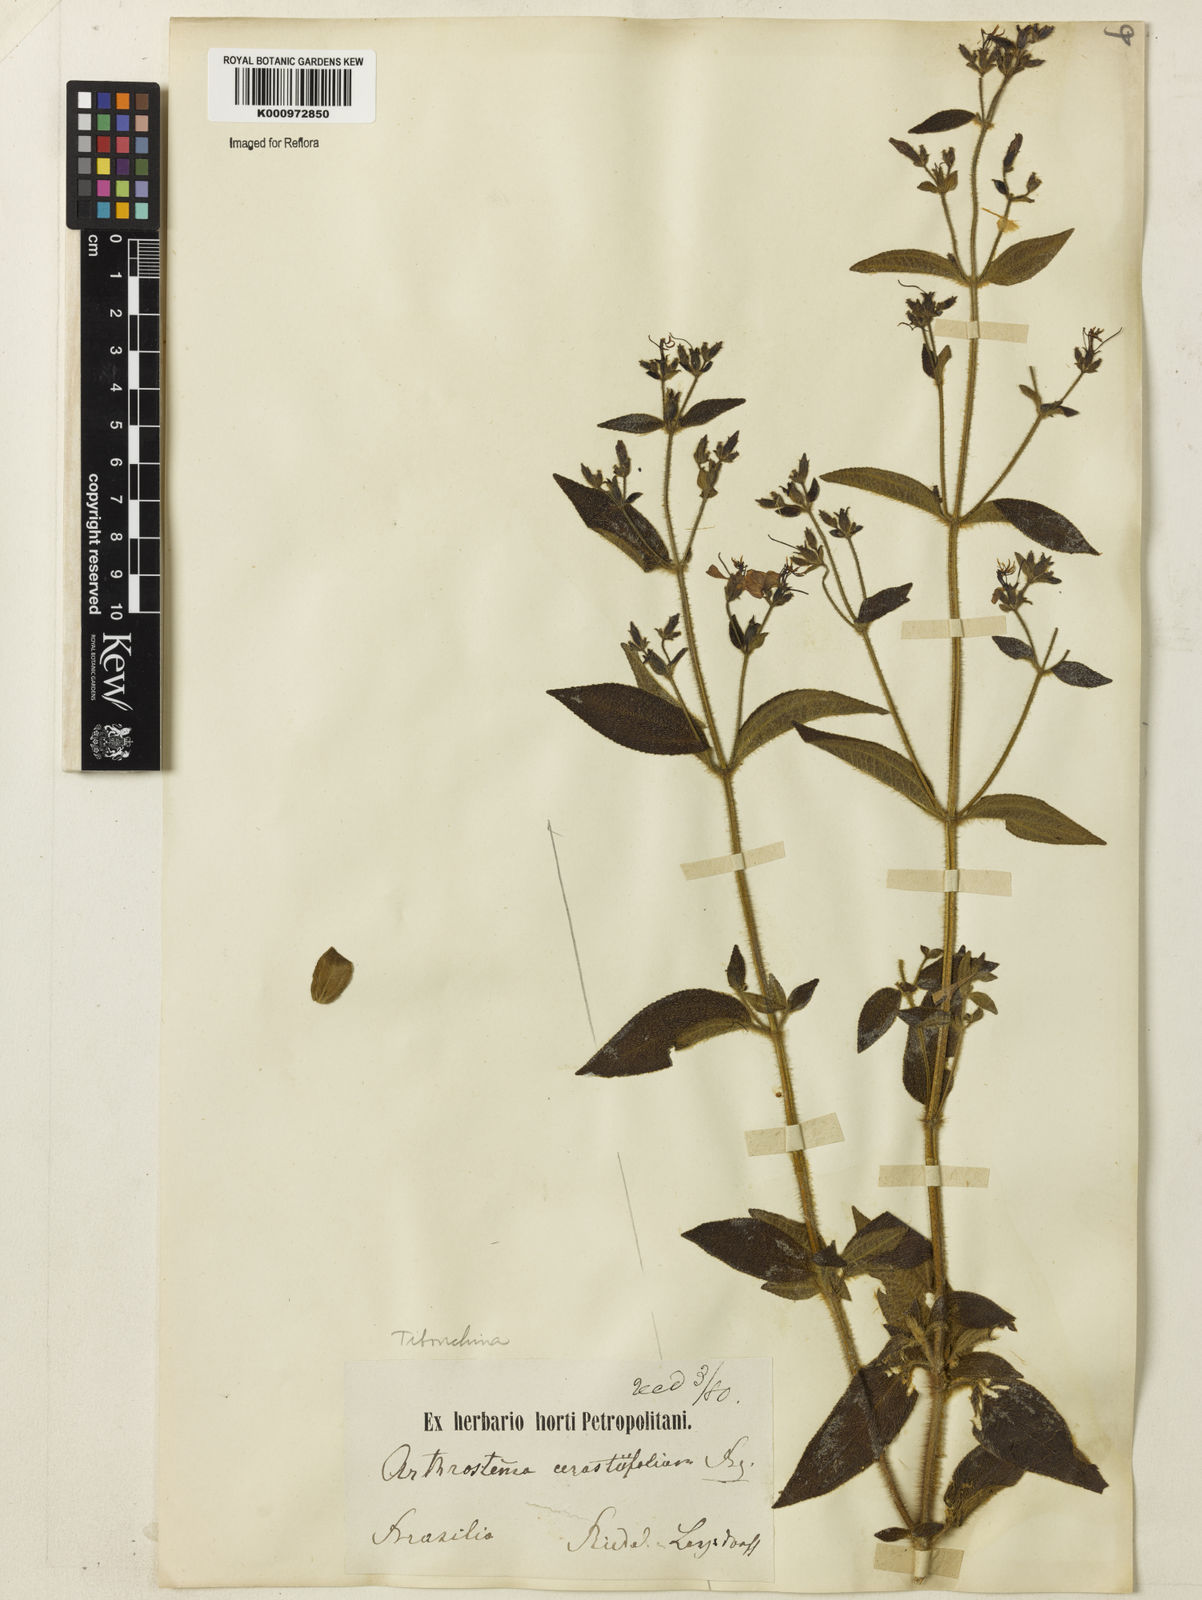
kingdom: Plantae
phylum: Tracheophyta
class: Magnoliopsida
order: Myrtales
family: Melastomataceae
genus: Chaetogastra
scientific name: Chaetogastra cerastifolia
